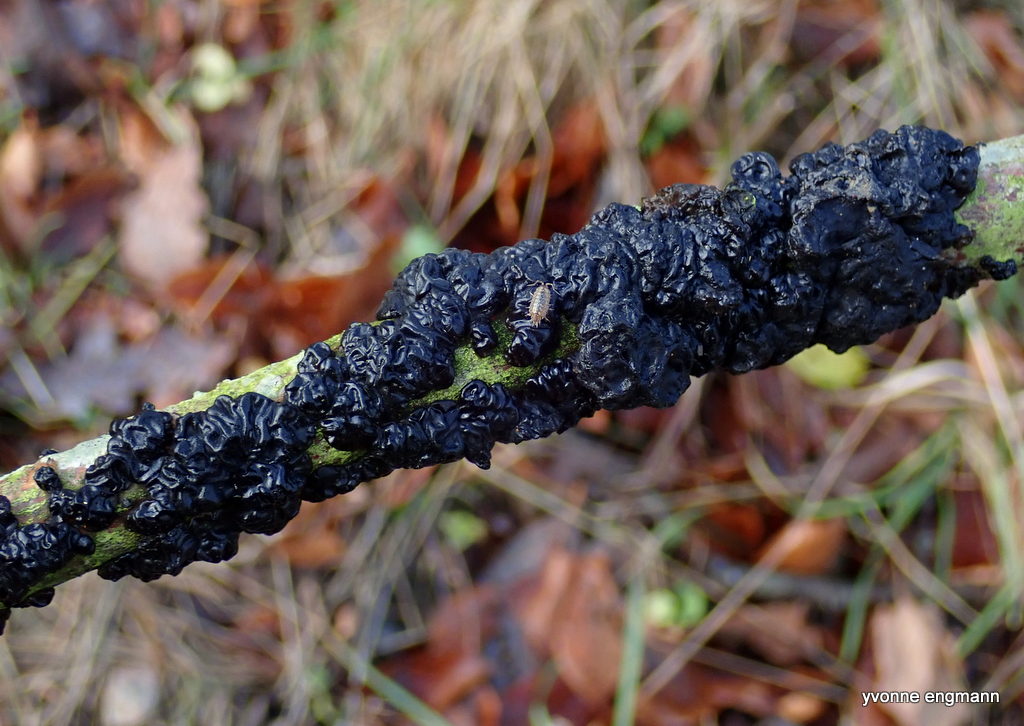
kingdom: Fungi
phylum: Basidiomycota
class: Agaricomycetes
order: Auriculariales
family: Auriculariaceae
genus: Exidia
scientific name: Exidia nigricans
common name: almindelig bævretop
